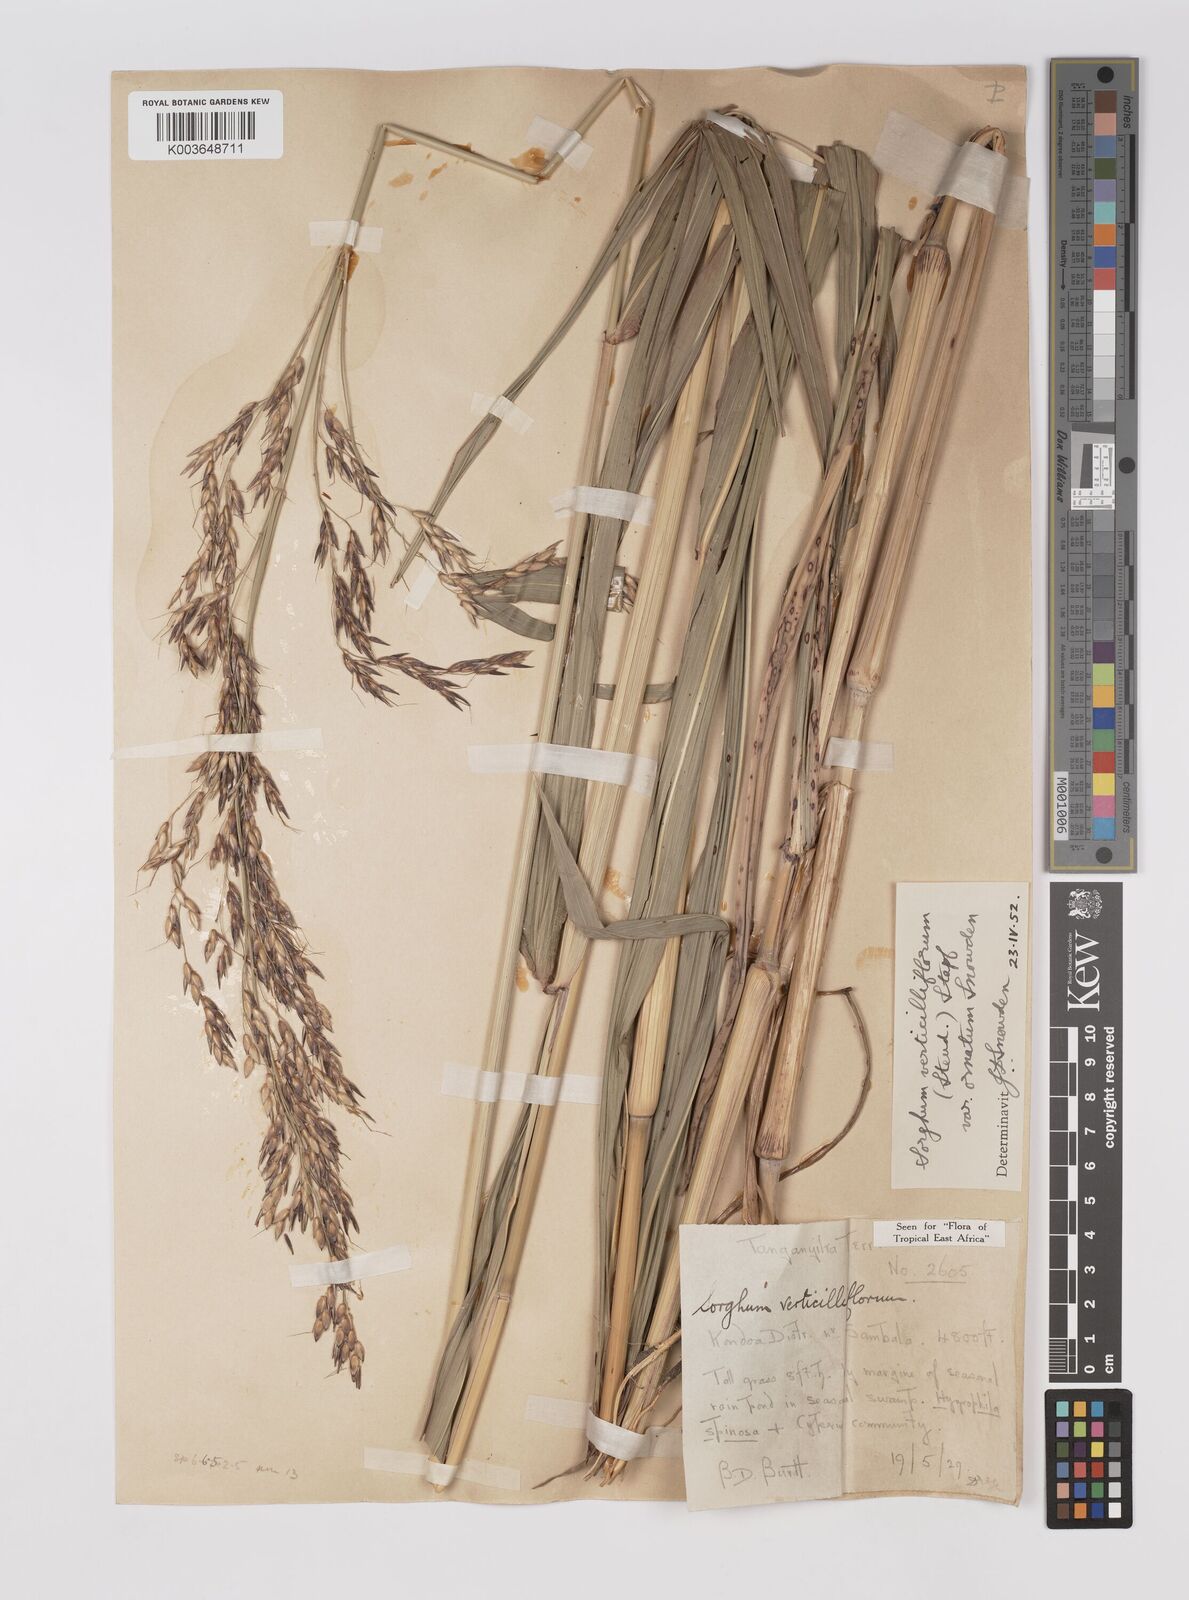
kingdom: Plantae
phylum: Tracheophyta
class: Liliopsida
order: Poales
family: Poaceae
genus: Sorghum
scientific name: Sorghum arundinaceum
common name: Sorghum
